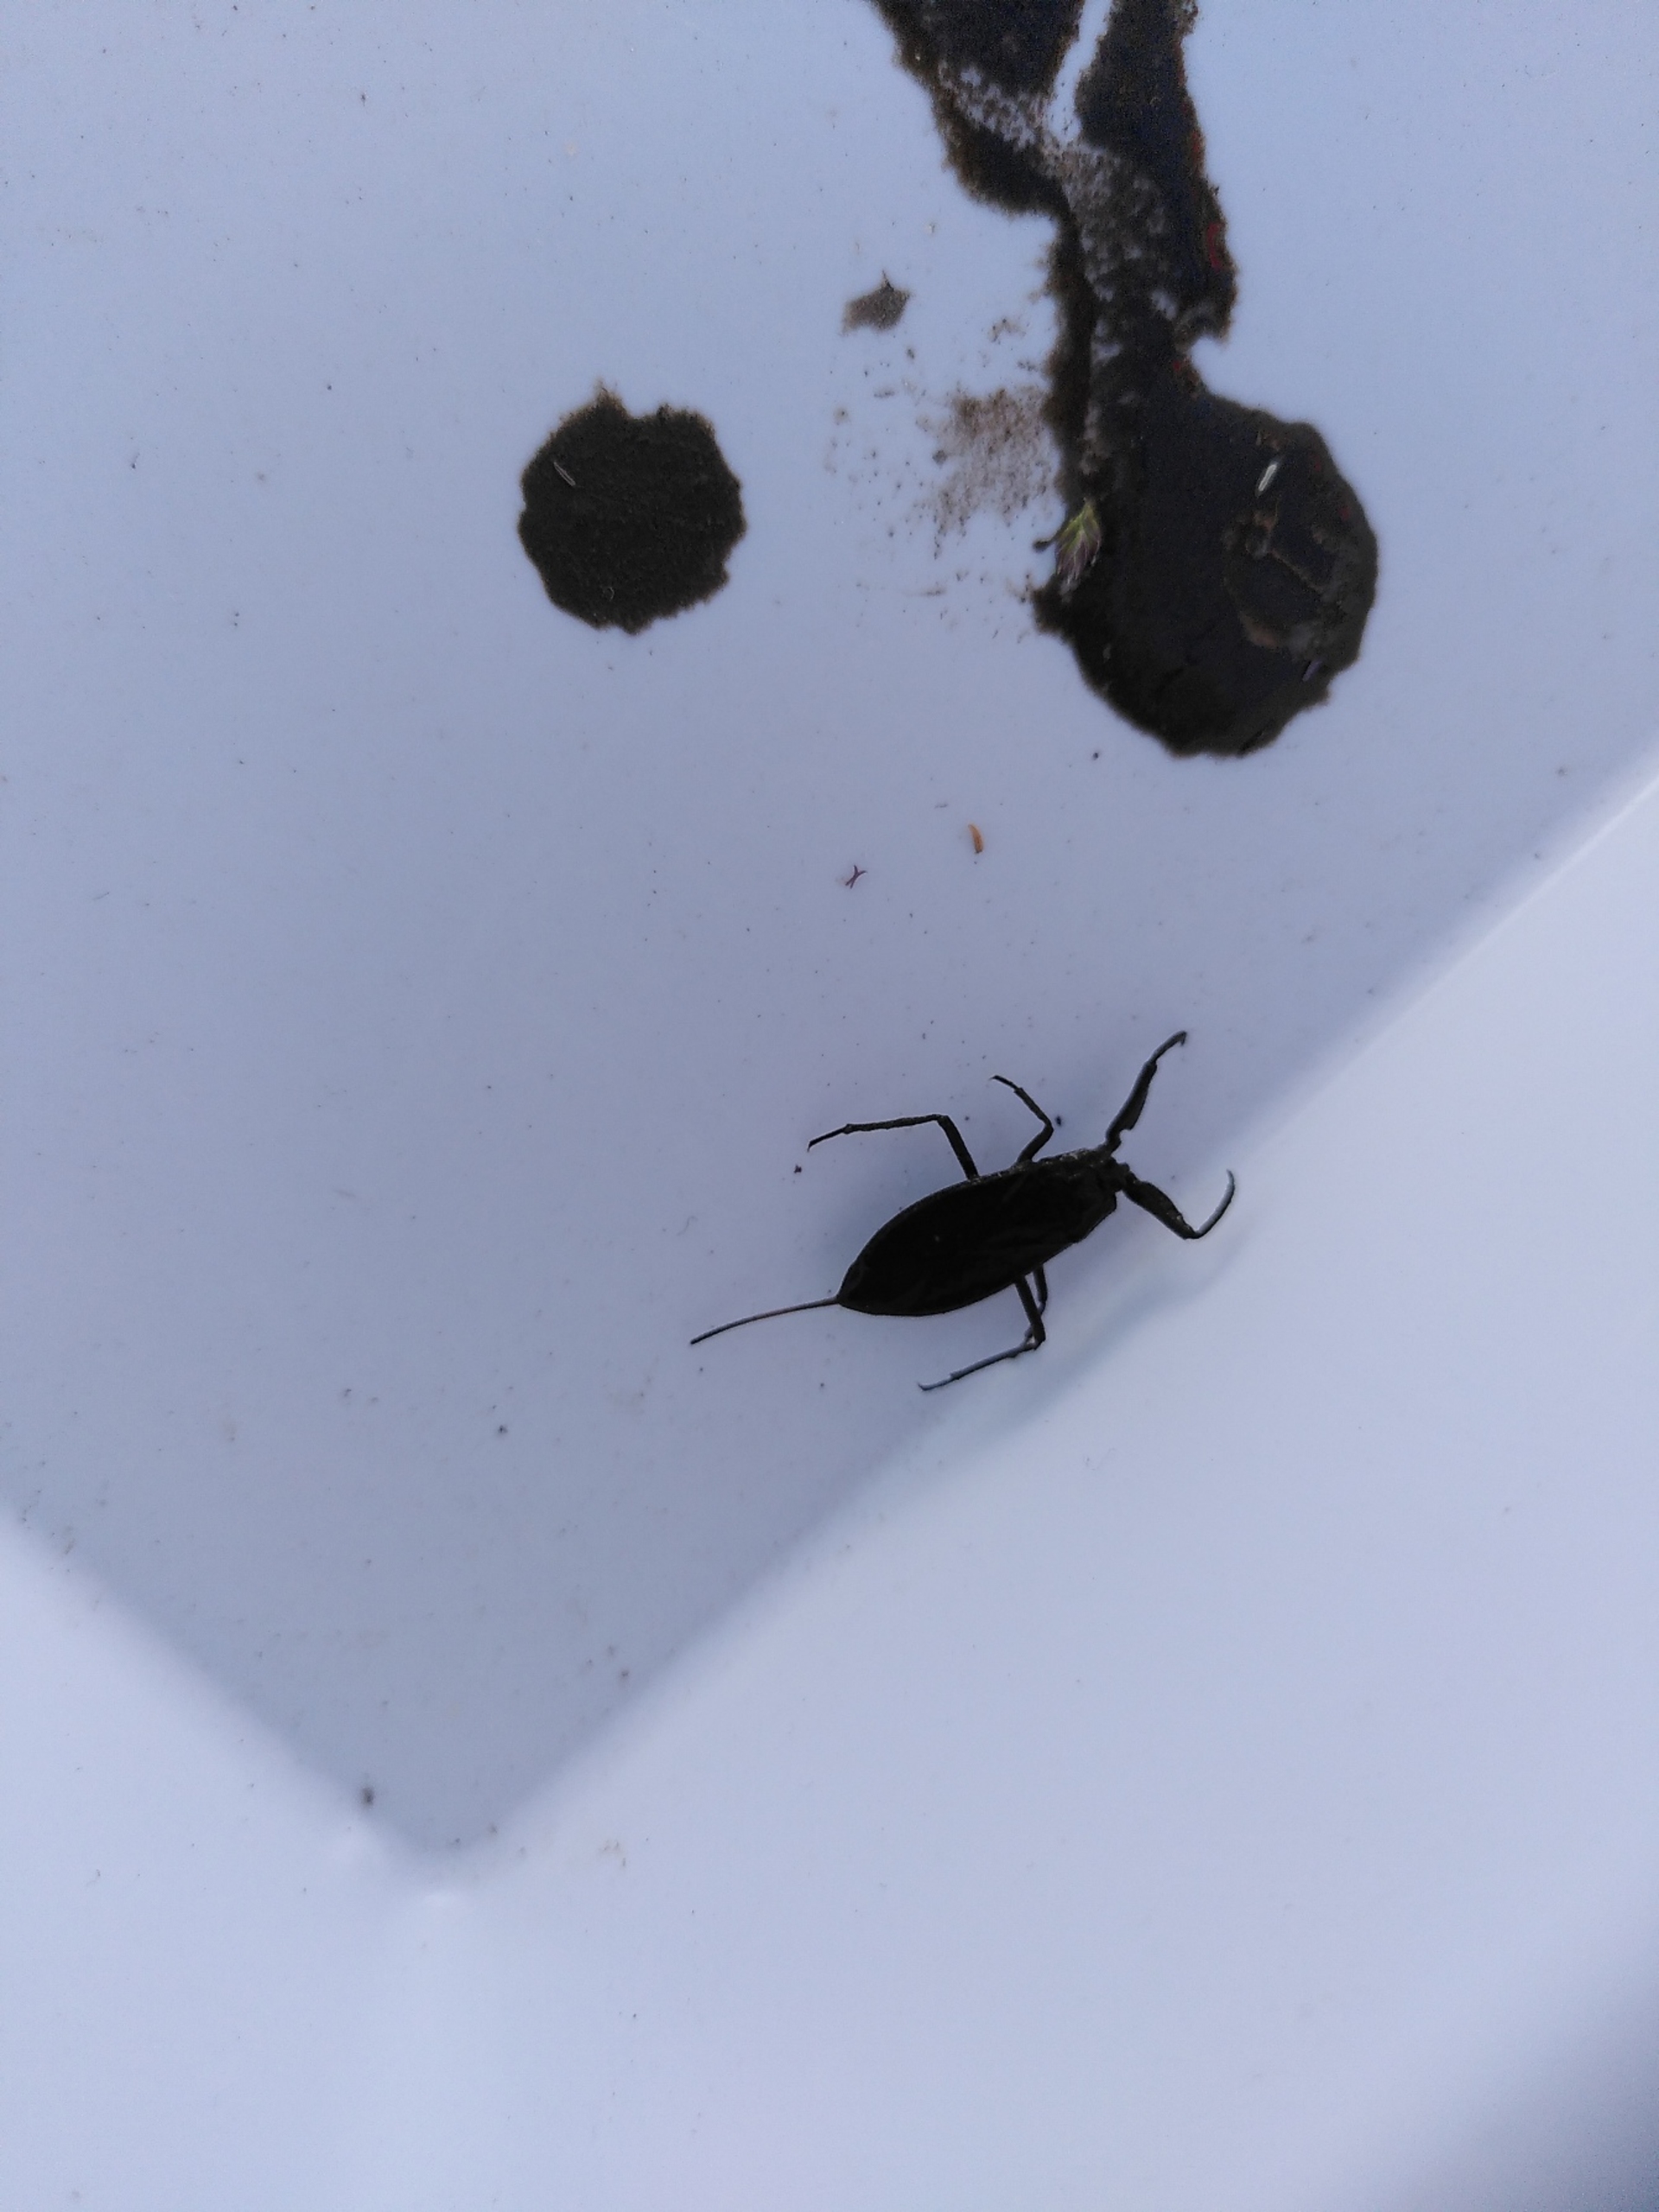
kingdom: Animalia
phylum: Arthropoda
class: Insecta
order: Hemiptera
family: Nepidae
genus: Nepa
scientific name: Nepa cinerea
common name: Skorpiontæge
